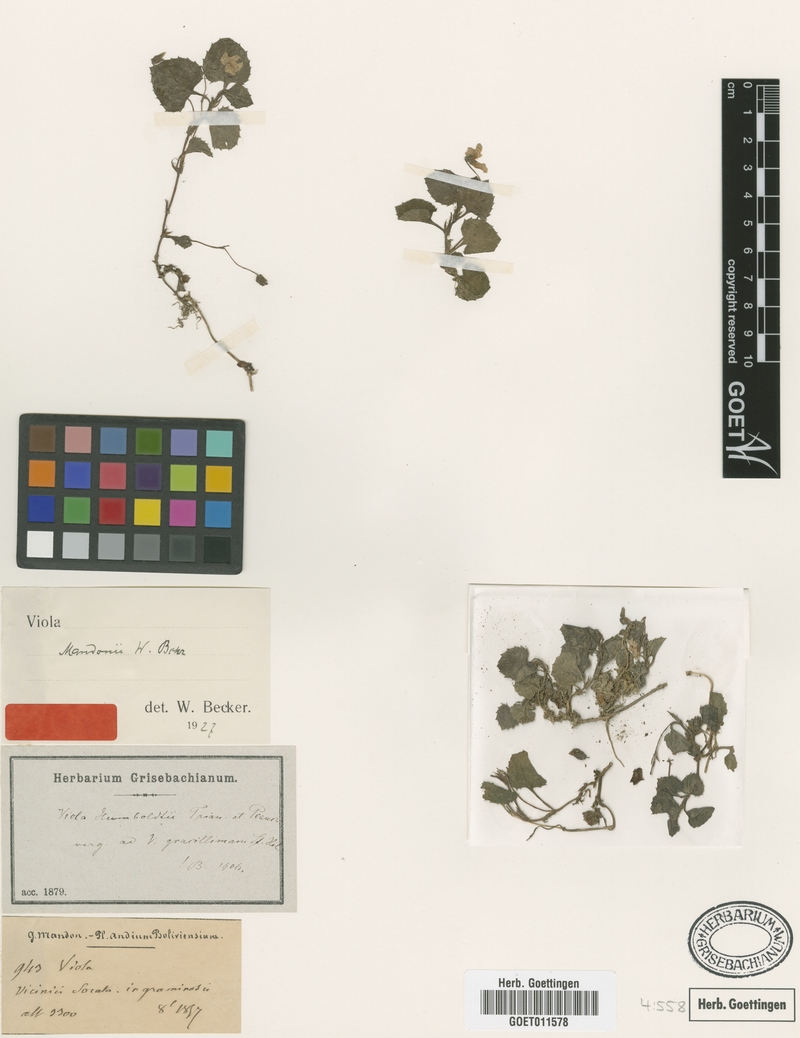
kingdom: Plantae
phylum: Tracheophyta
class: Magnoliopsida
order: Malpighiales
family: Violaceae
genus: Viola
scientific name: Viola mandonii
